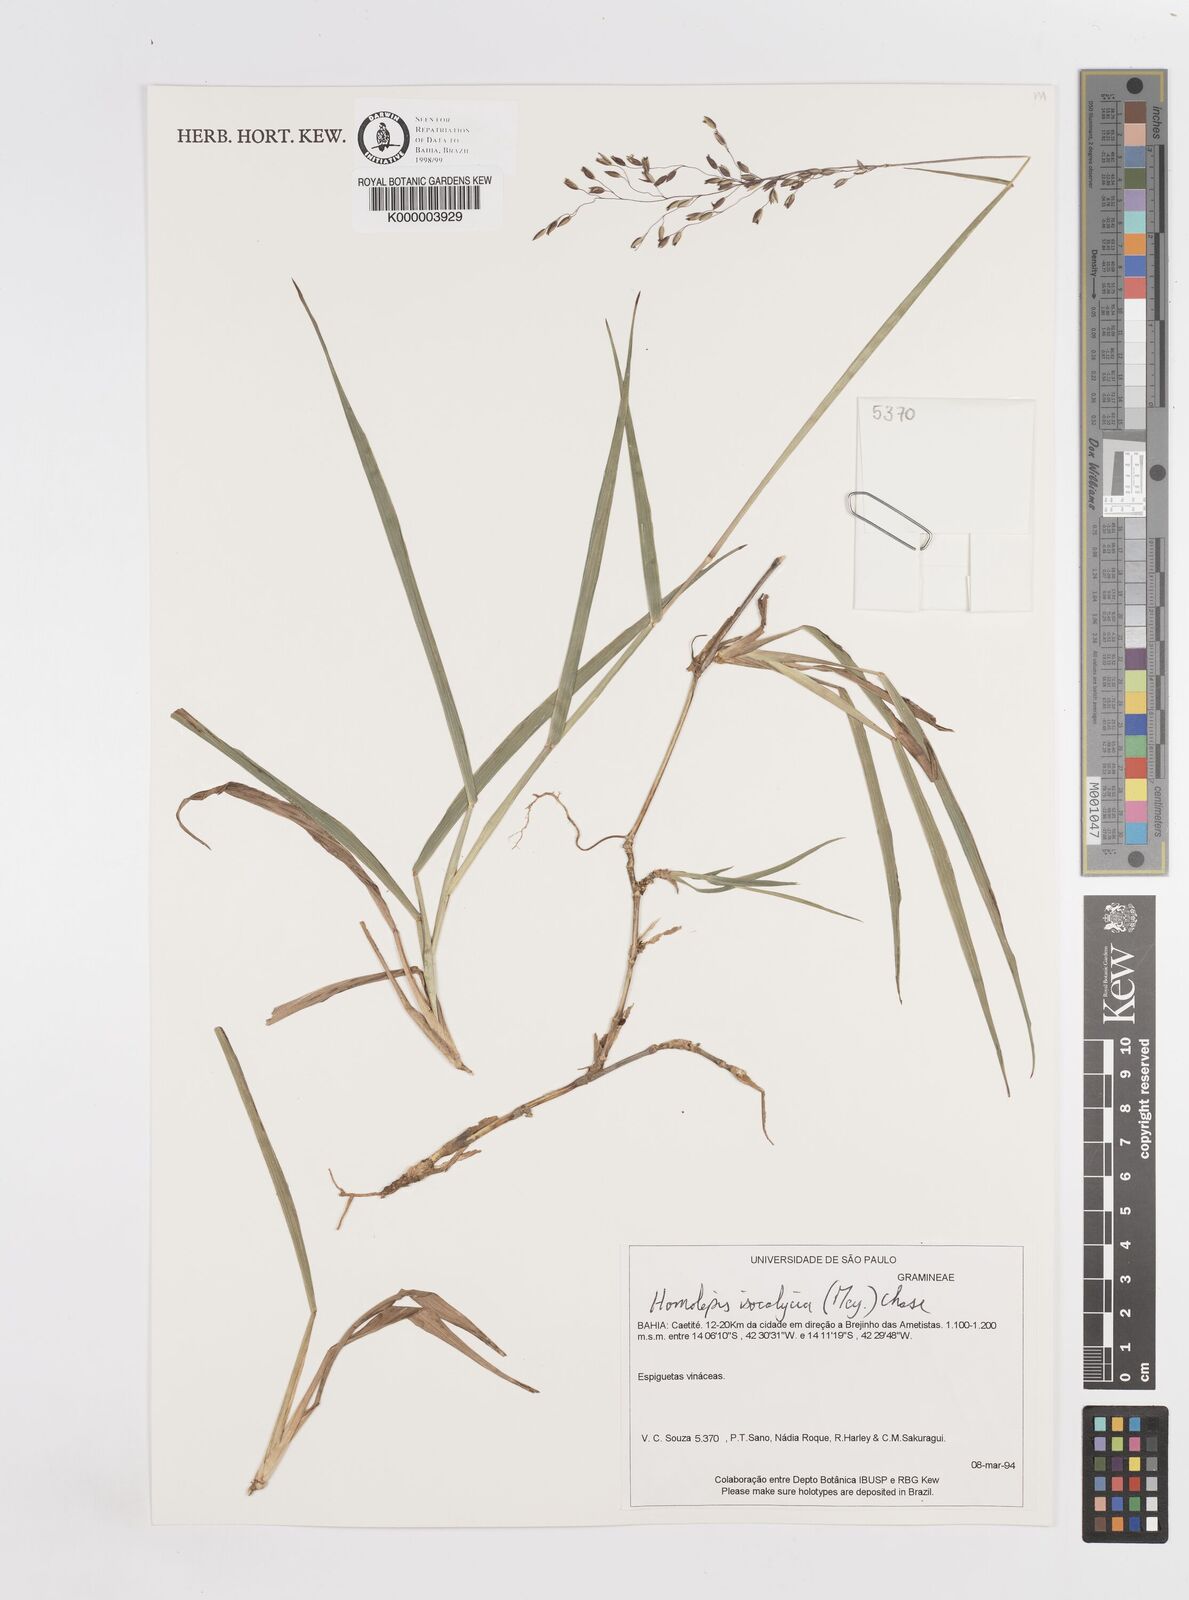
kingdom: Plantae
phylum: Tracheophyta
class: Liliopsida
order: Poales
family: Poaceae
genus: Sacciolepis
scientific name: Sacciolepis indica
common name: Glenwoodgrass
